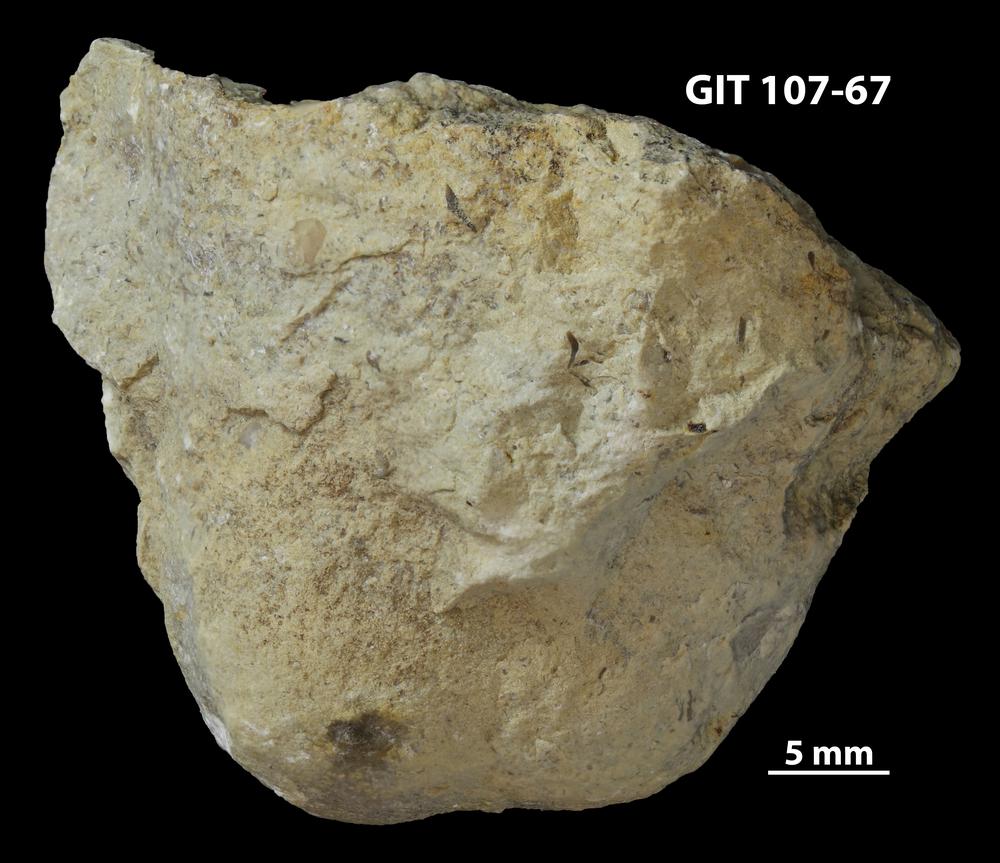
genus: Conichnus
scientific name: Conichnus
